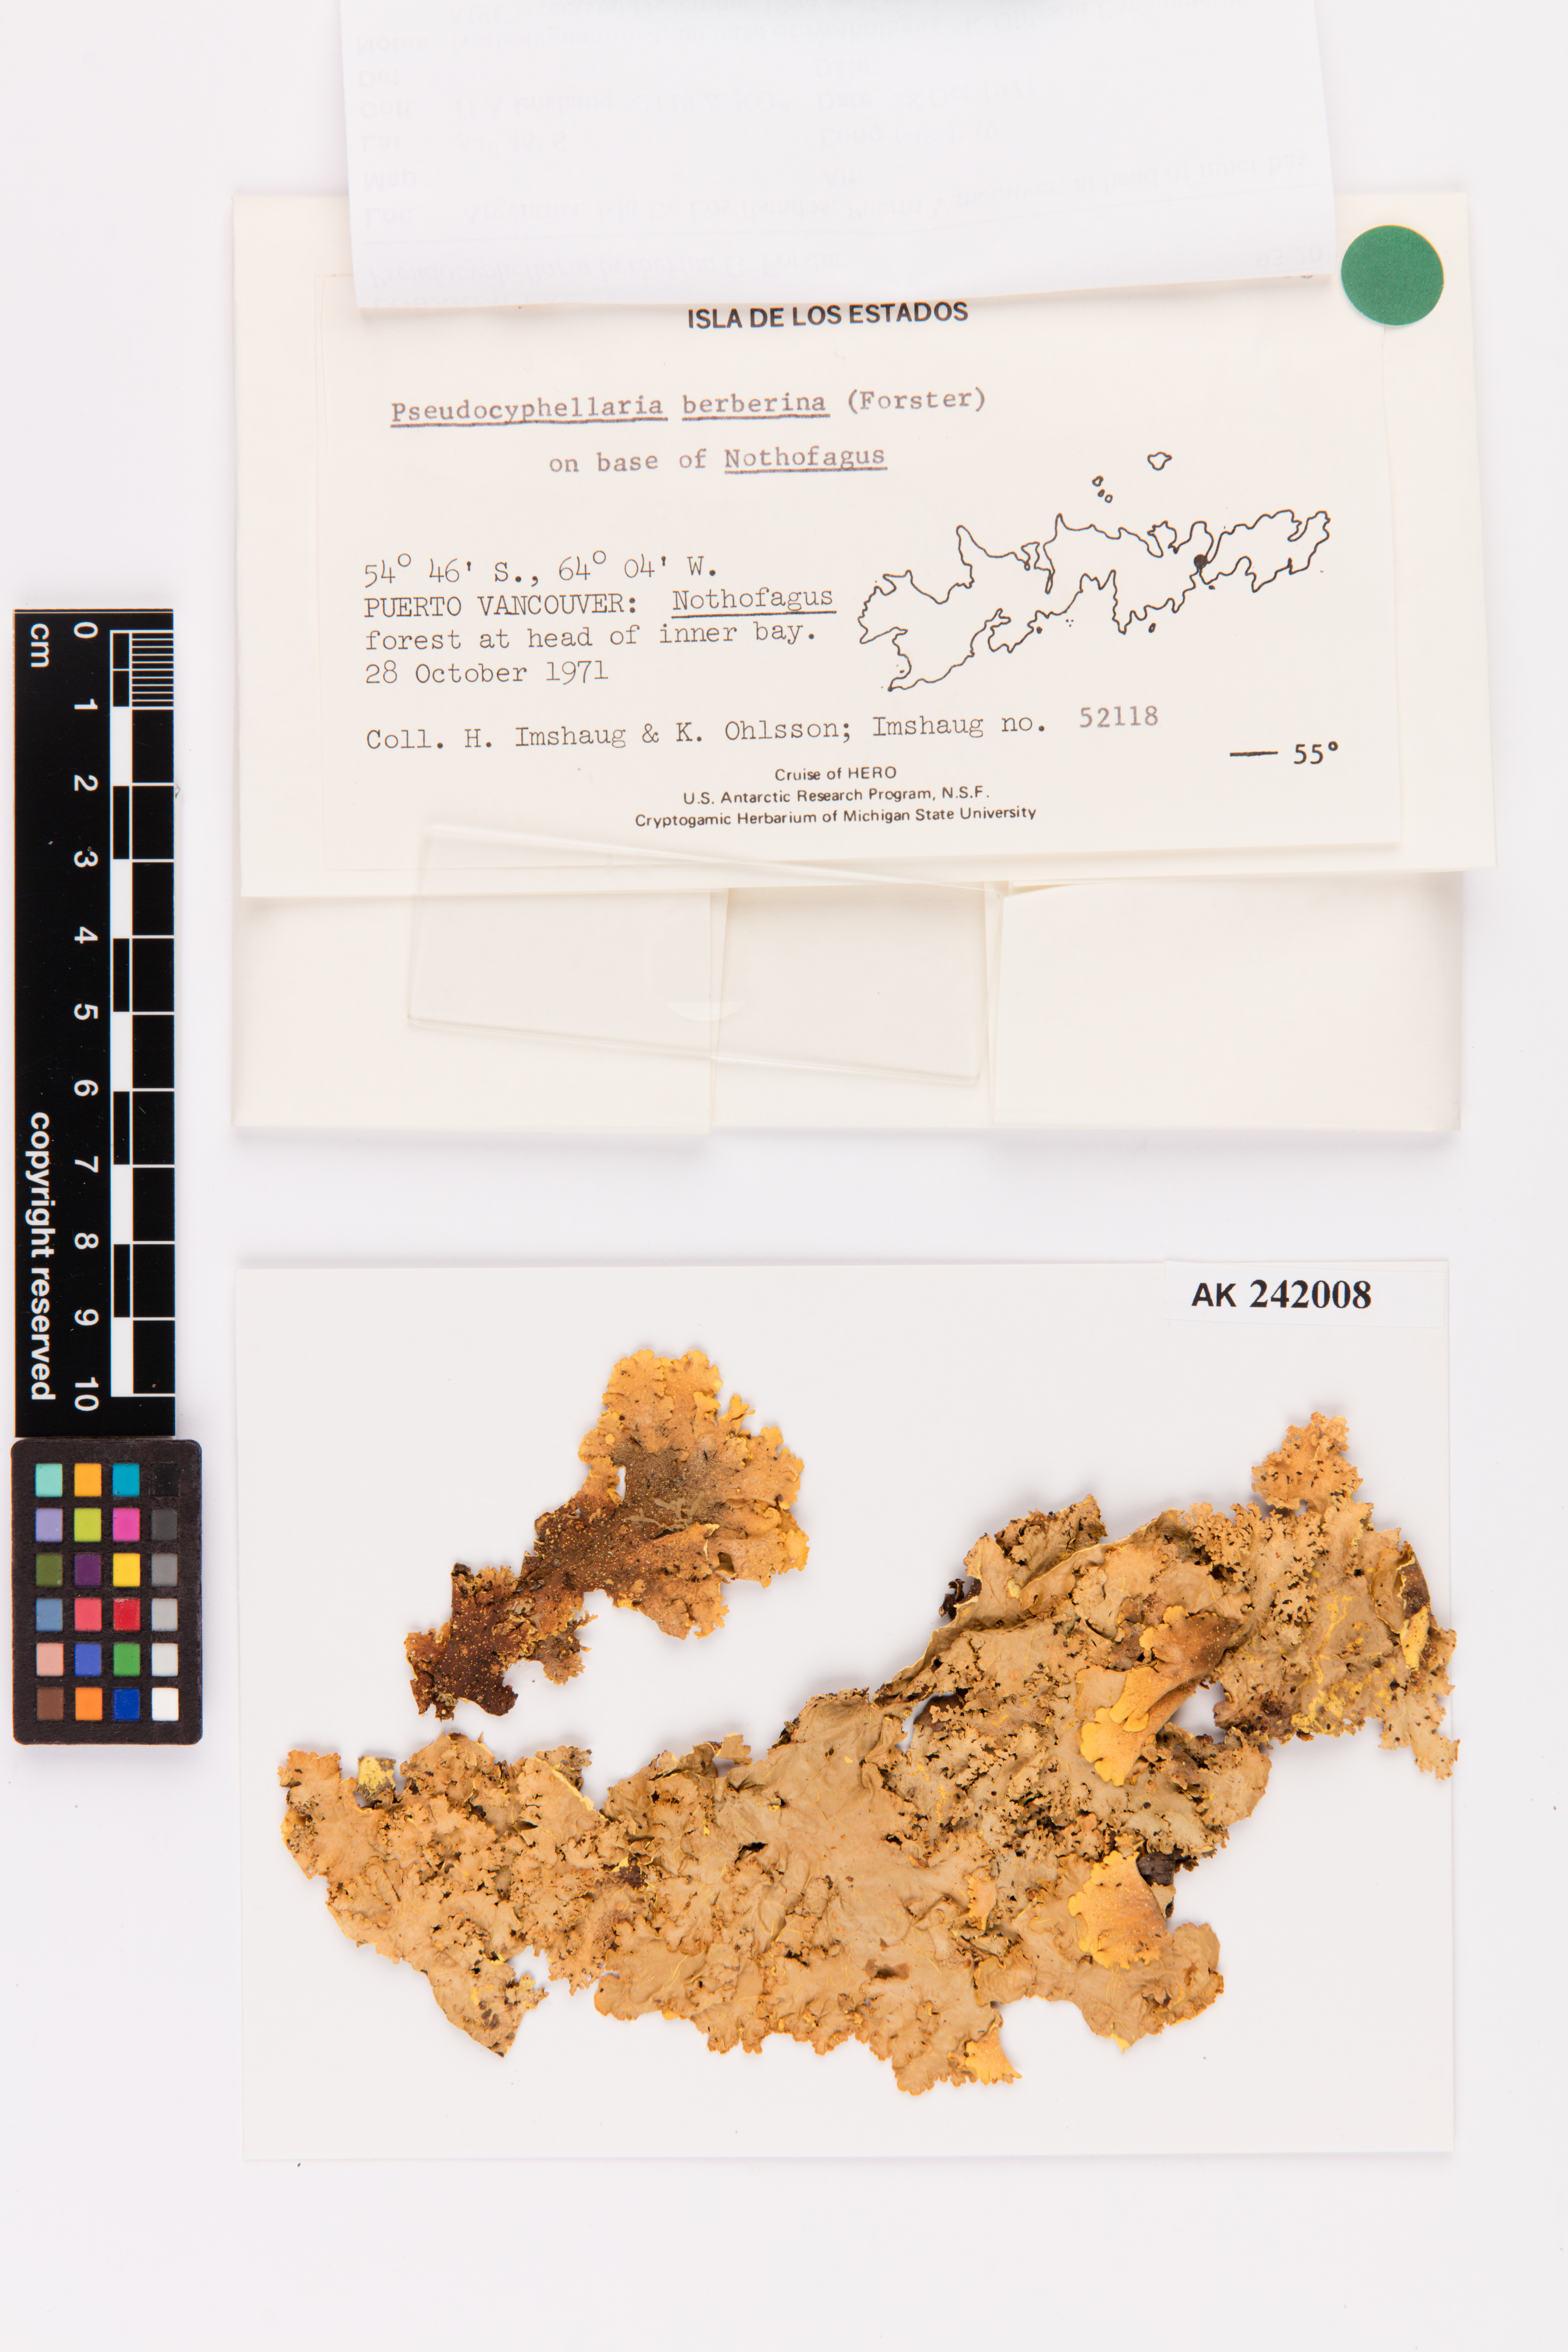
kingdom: Fungi
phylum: Ascomycota
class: Lecanoromycetes
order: Peltigerales
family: Lobariaceae
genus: Podostictina
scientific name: Podostictina berberina
